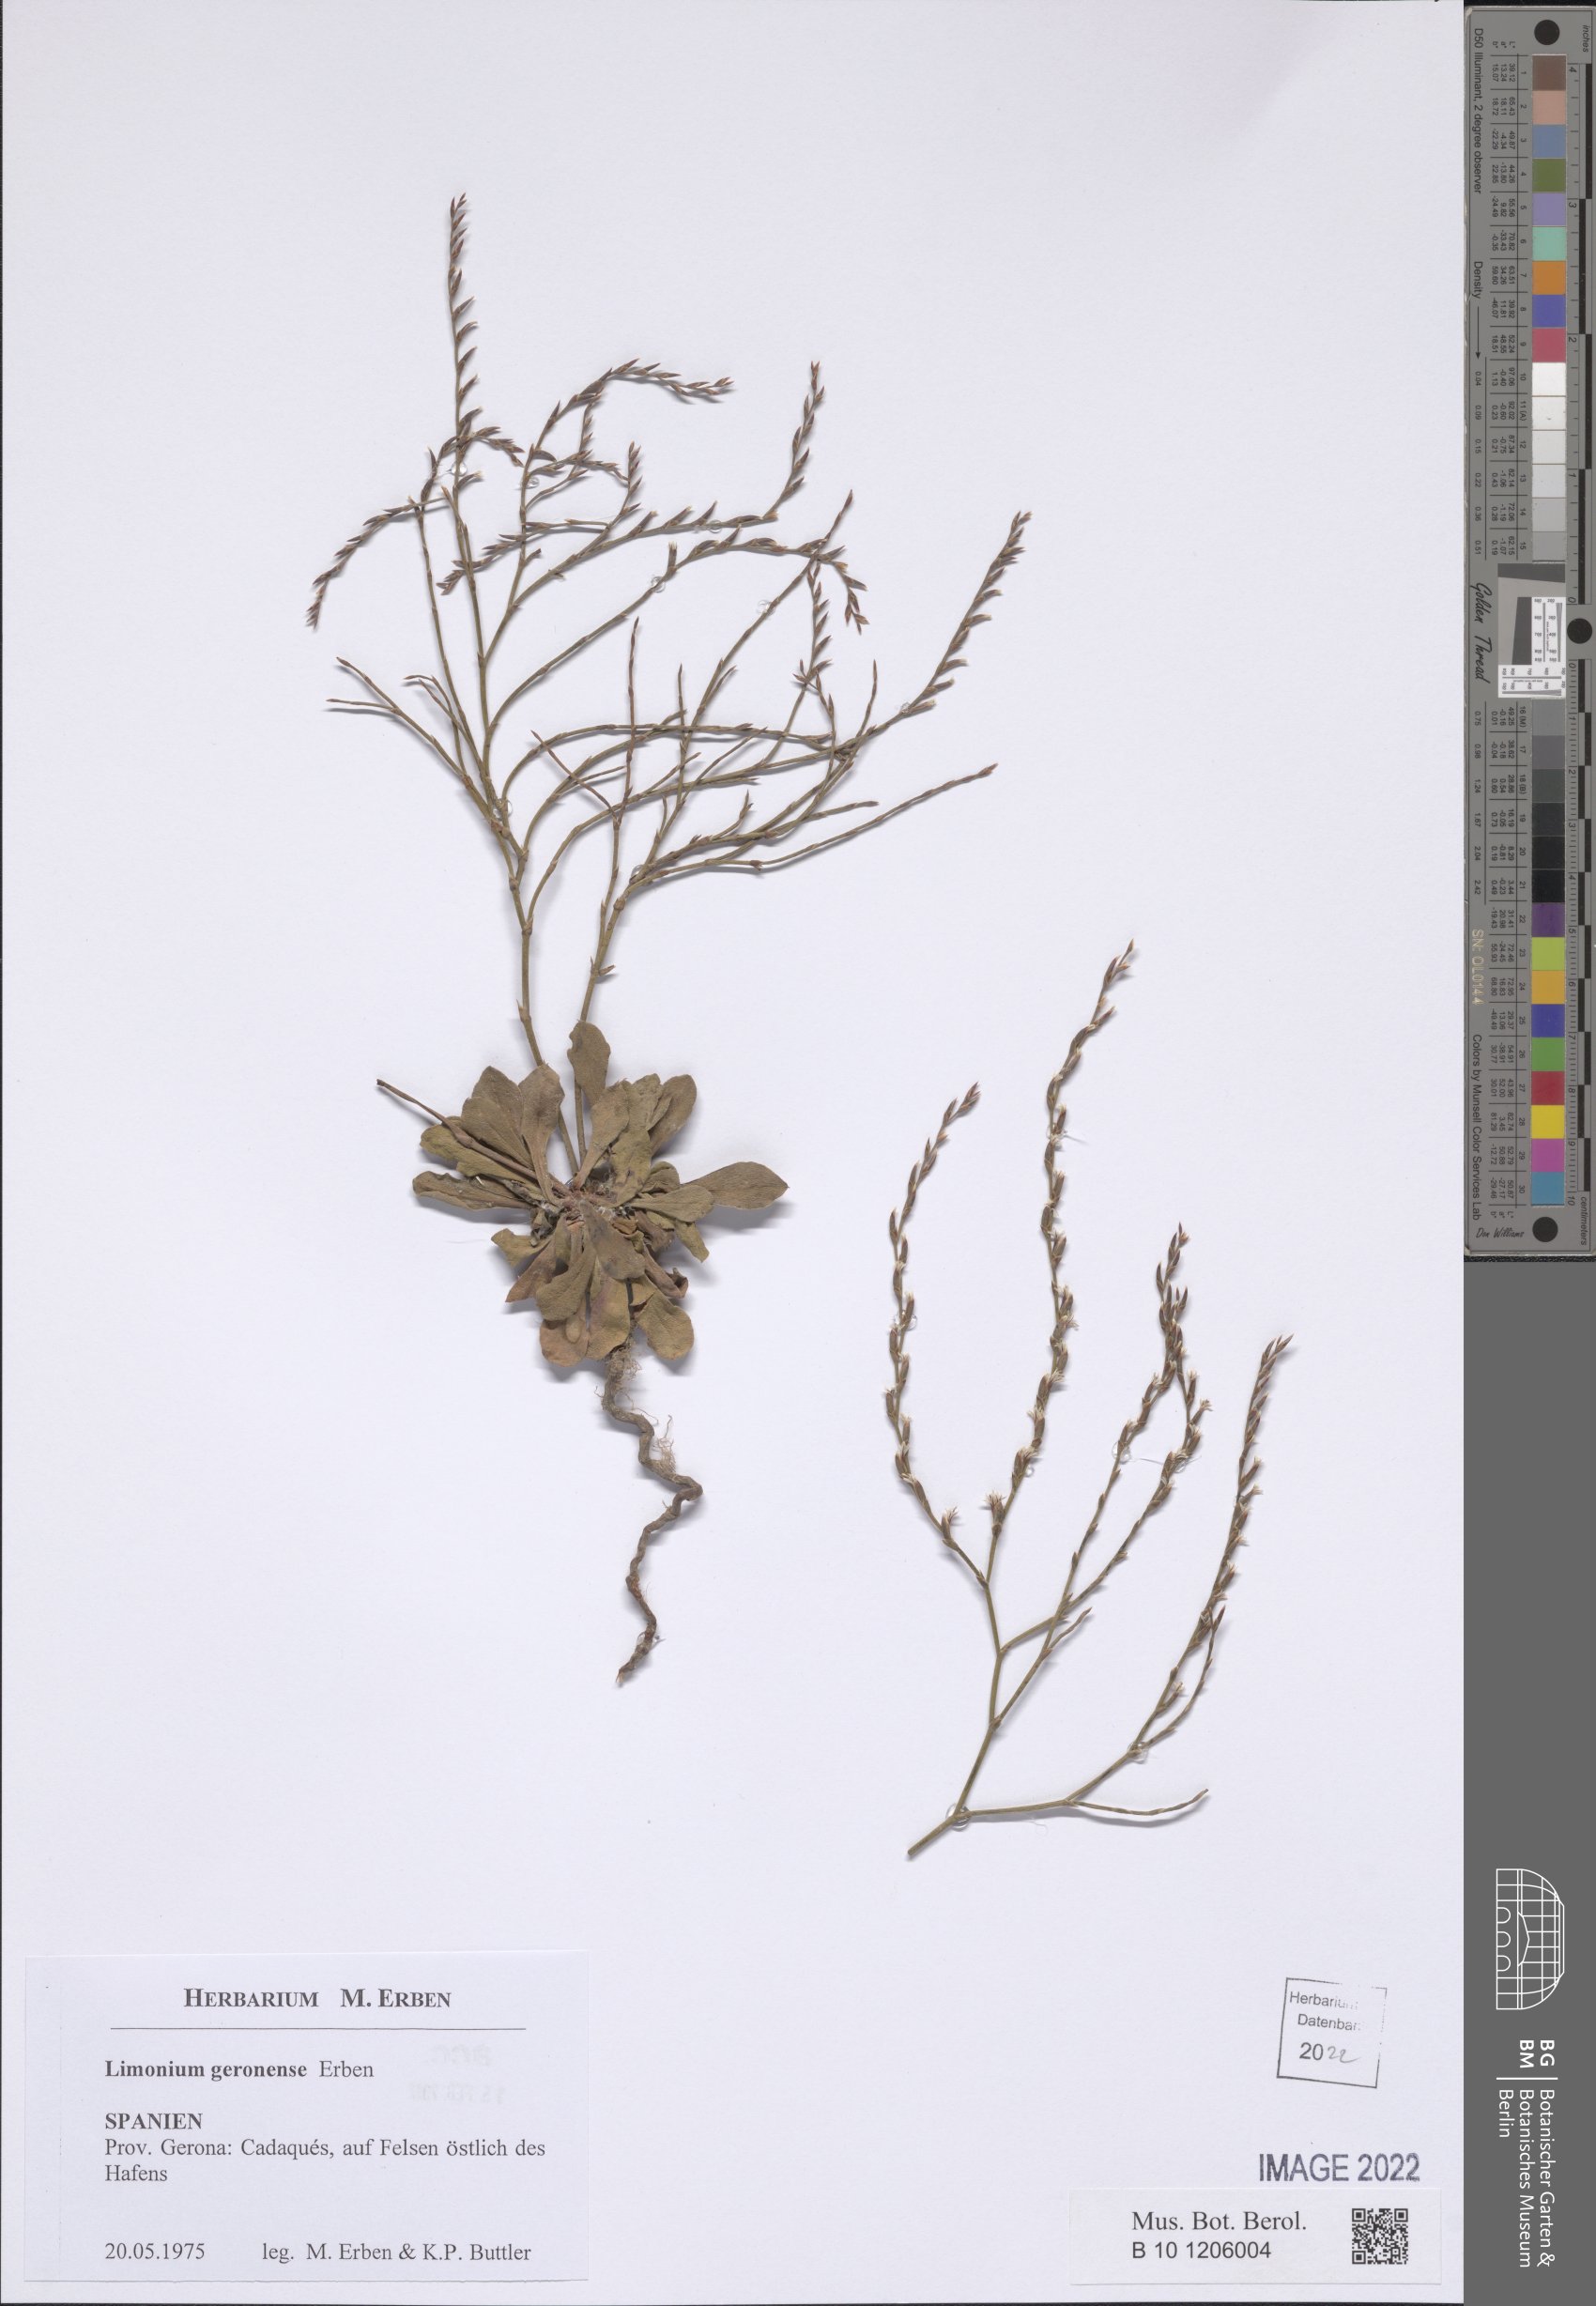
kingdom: Plantae
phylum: Tracheophyta
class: Magnoliopsida
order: Caryophyllales
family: Plumbaginaceae
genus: Limonium
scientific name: Limonium geronense
